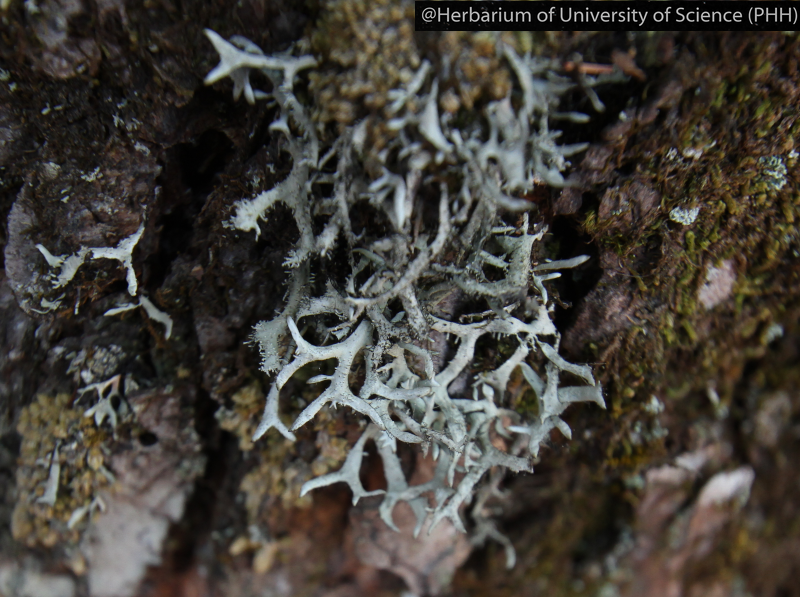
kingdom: Fungi
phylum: Ascomycota
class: Lecanoromycetes
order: Lecanorales
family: Parmeliaceae
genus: Hypotrachyna
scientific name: Hypotrachyna
